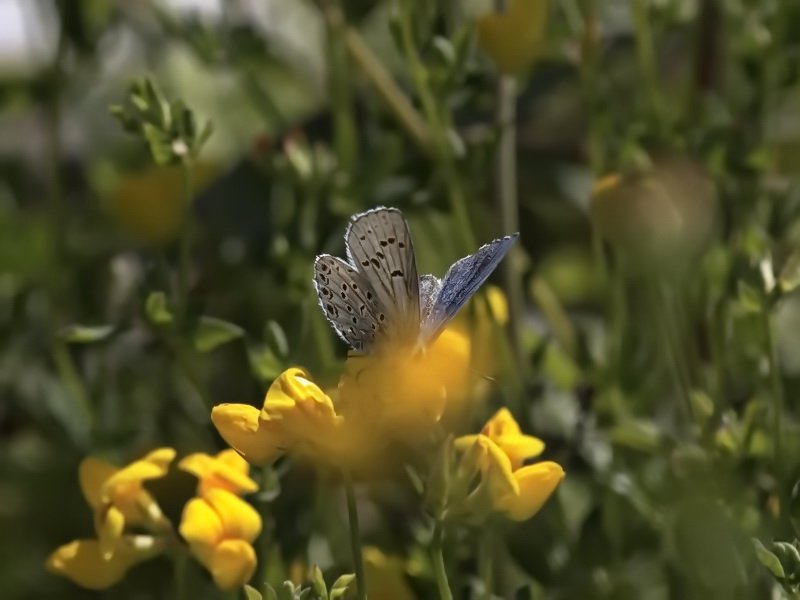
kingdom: Animalia
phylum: Arthropoda
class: Insecta
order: Lepidoptera
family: Lycaenidae
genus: Lycaeides
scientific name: Lycaeides idas
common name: Northern Blue
